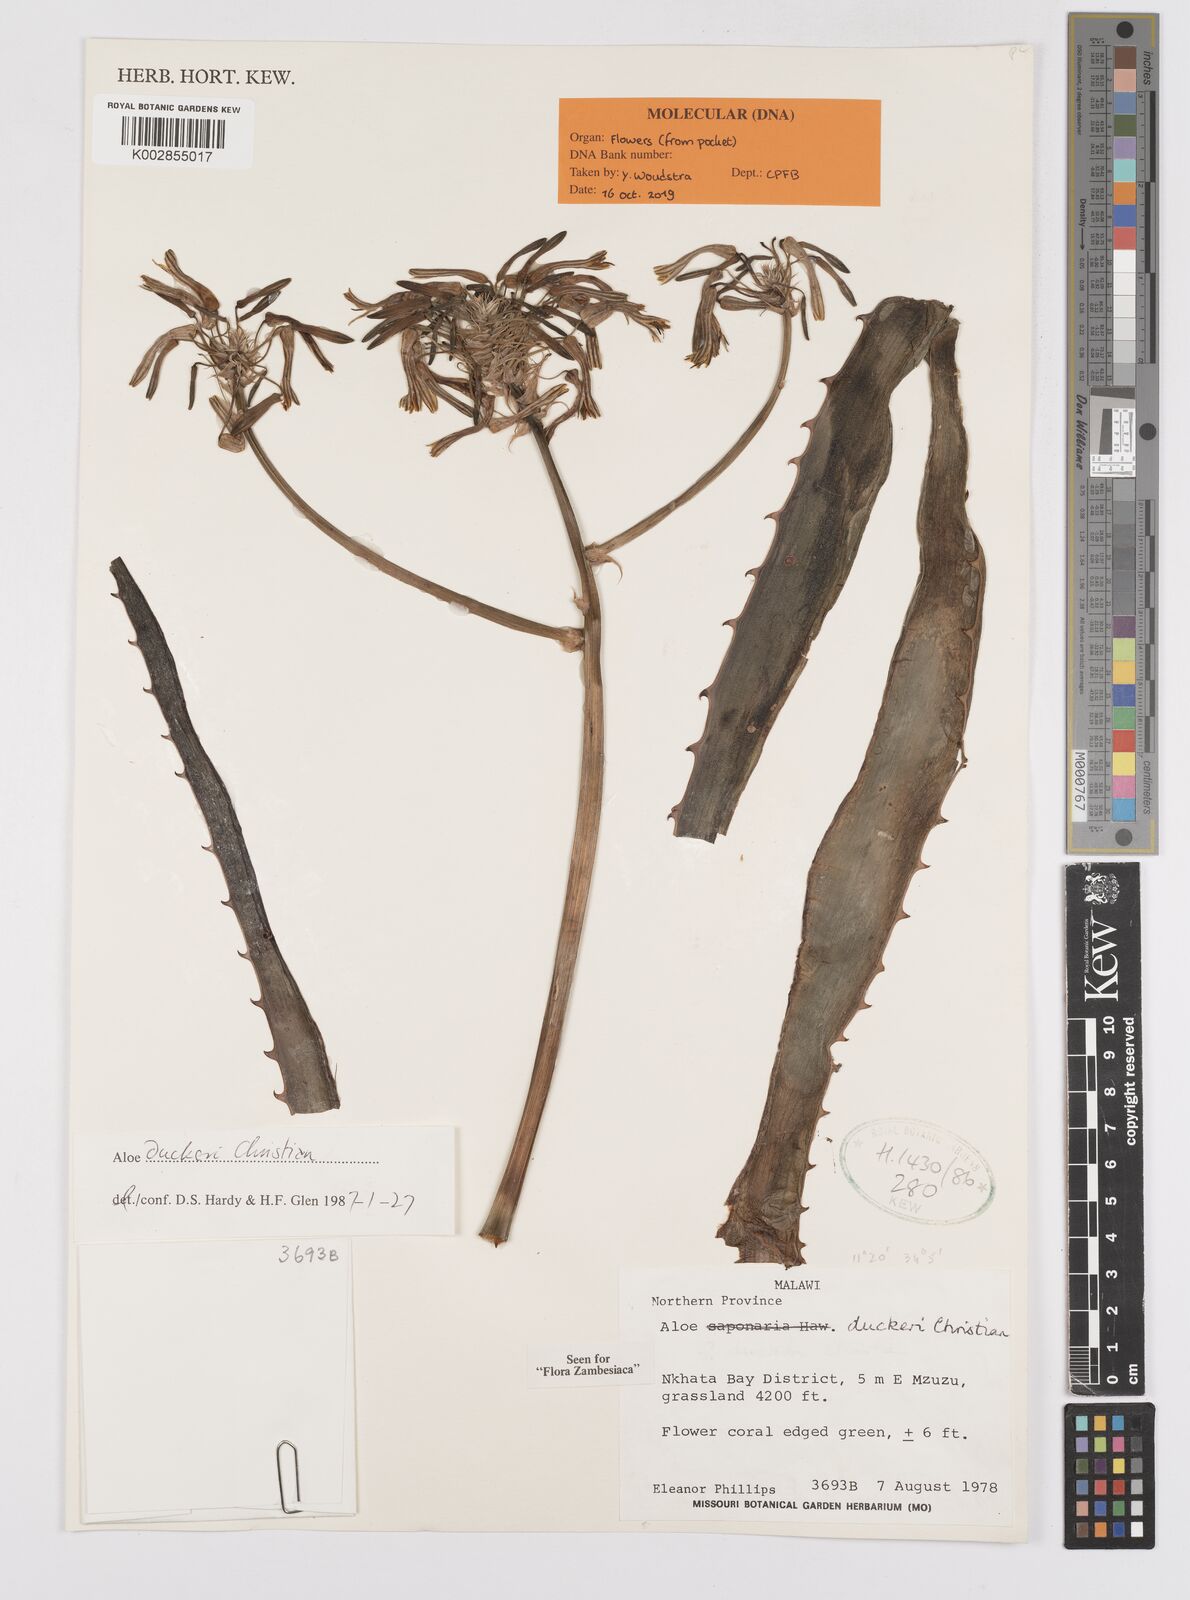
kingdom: Plantae
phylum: Tracheophyta
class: Liliopsida
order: Asparagales
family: Asphodelaceae
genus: Aloe
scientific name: Aloe duckeri
